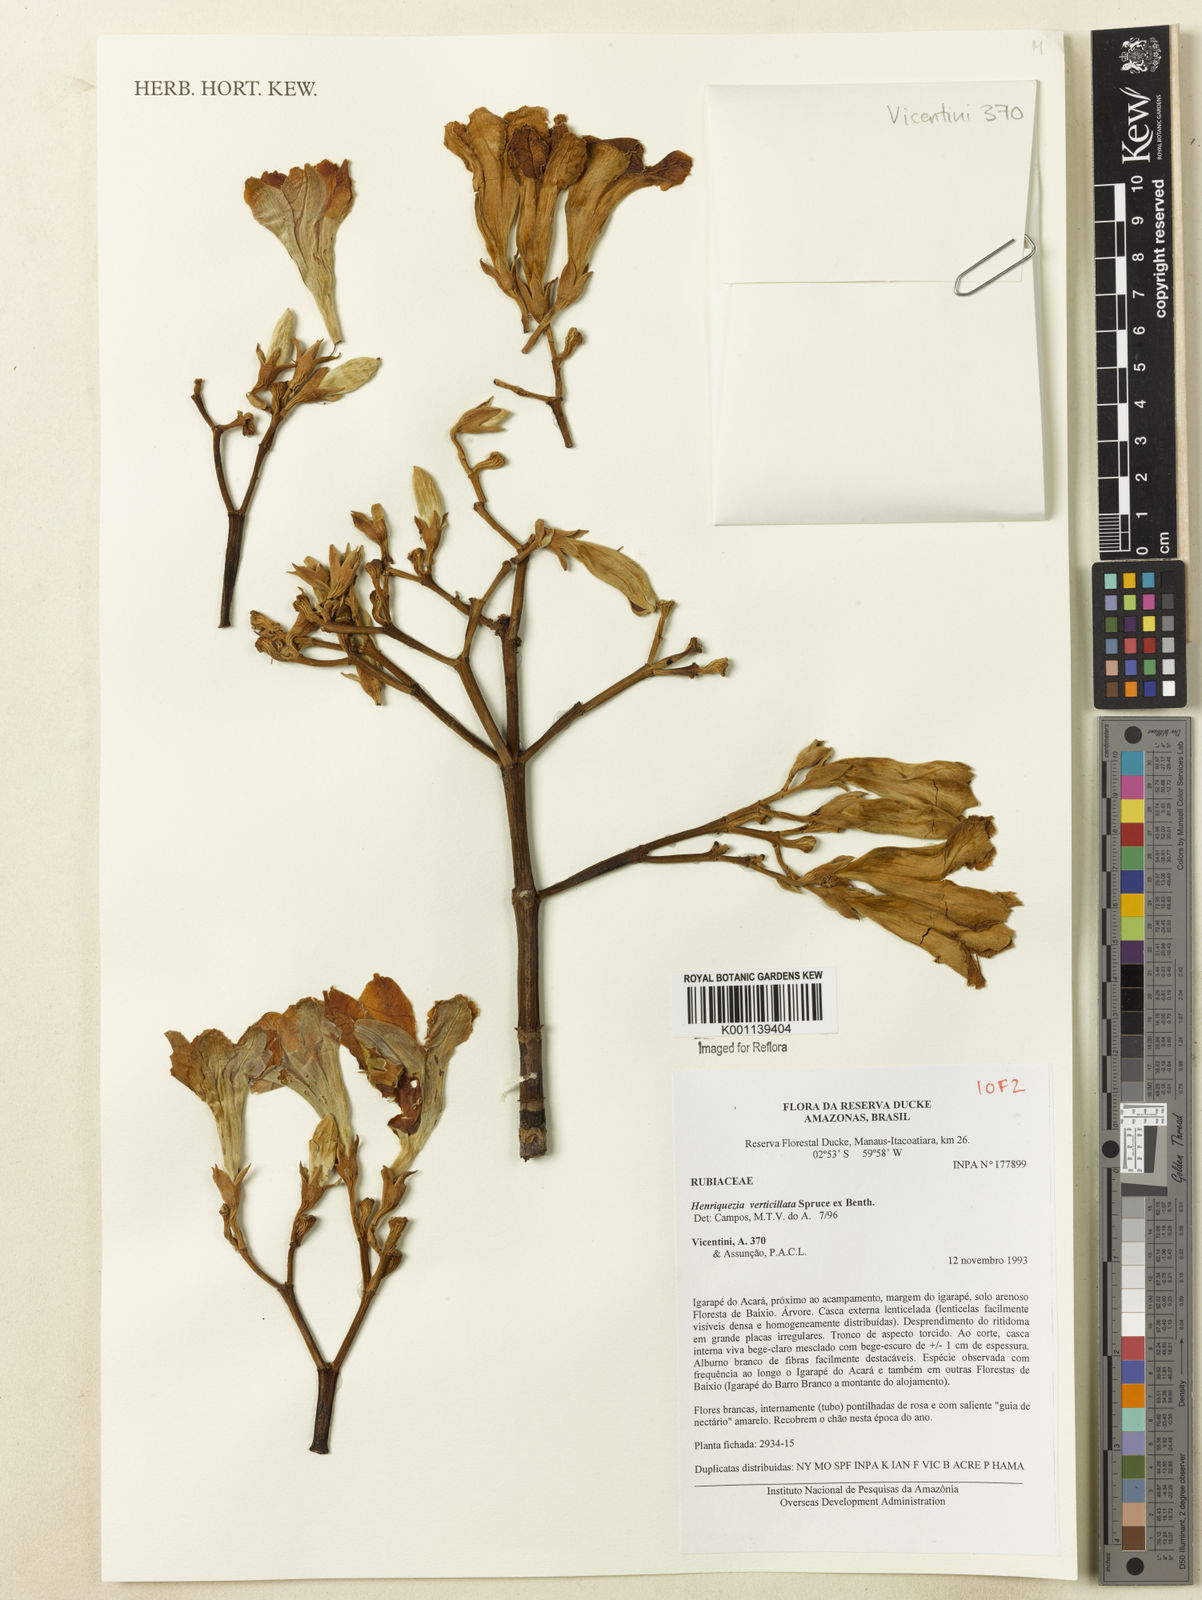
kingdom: Plantae
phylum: Tracheophyta
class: Magnoliopsida
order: Gentianales
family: Rubiaceae
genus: Henriquezia
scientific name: Henriquezia verticillata
